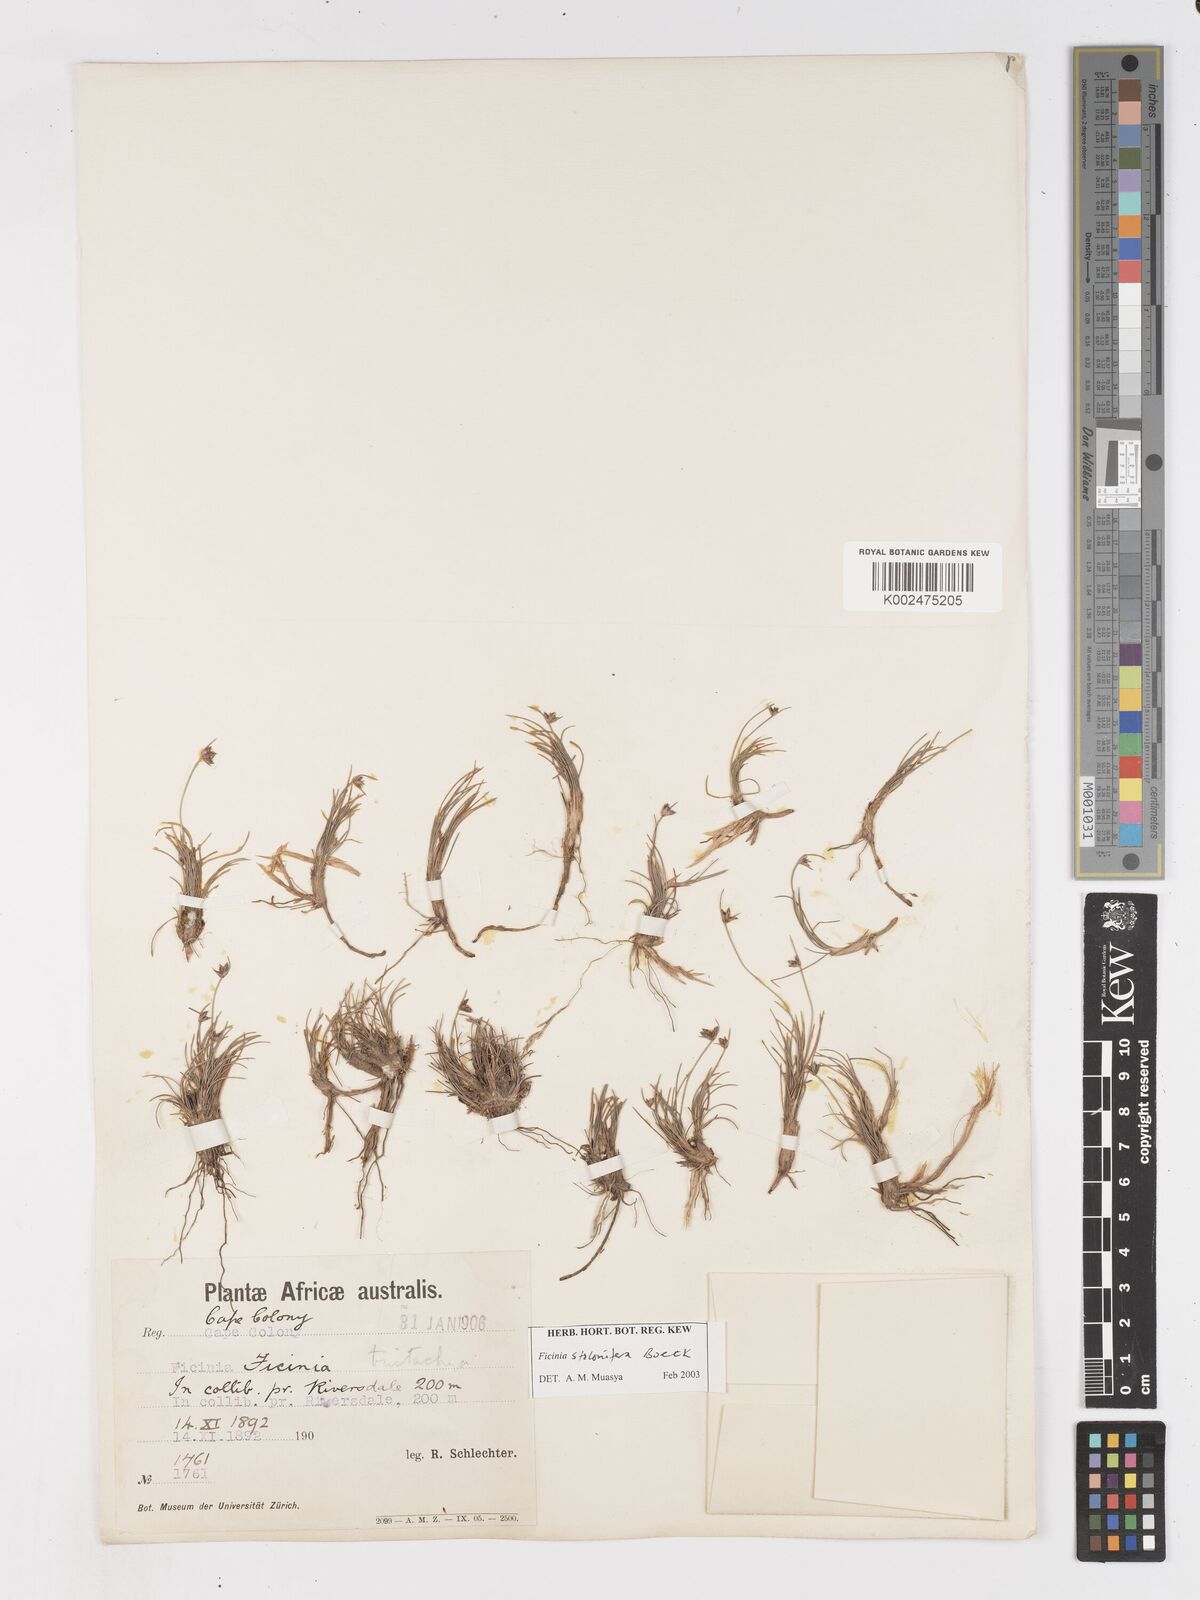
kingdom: Plantae
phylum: Tracheophyta
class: Liliopsida
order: Poales
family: Cyperaceae
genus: Ficinia
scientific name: Ficinia stolonifera
